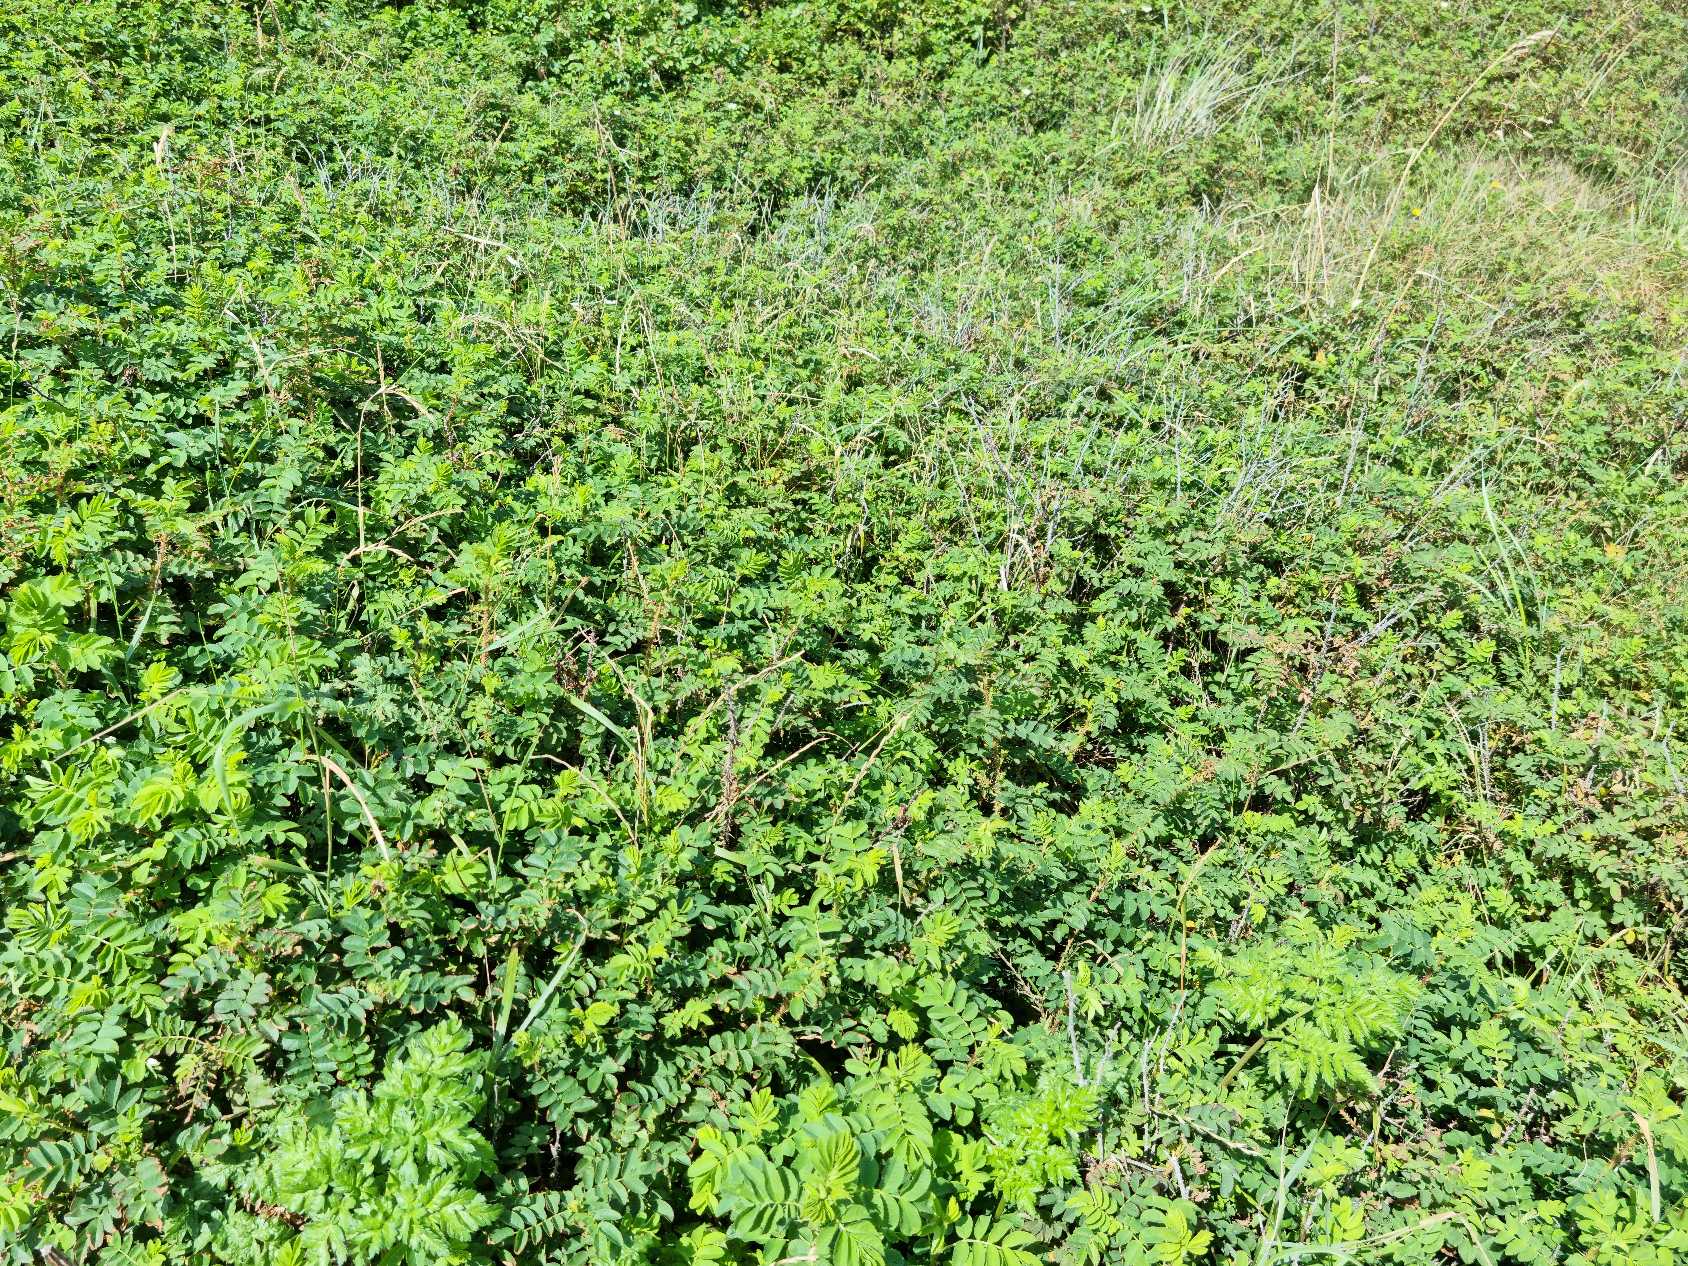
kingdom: Plantae
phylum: Tracheophyta
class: Magnoliopsida
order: Rosales
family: Rosaceae
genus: Rosa
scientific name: Rosa spinosissima
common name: Klit-rose
